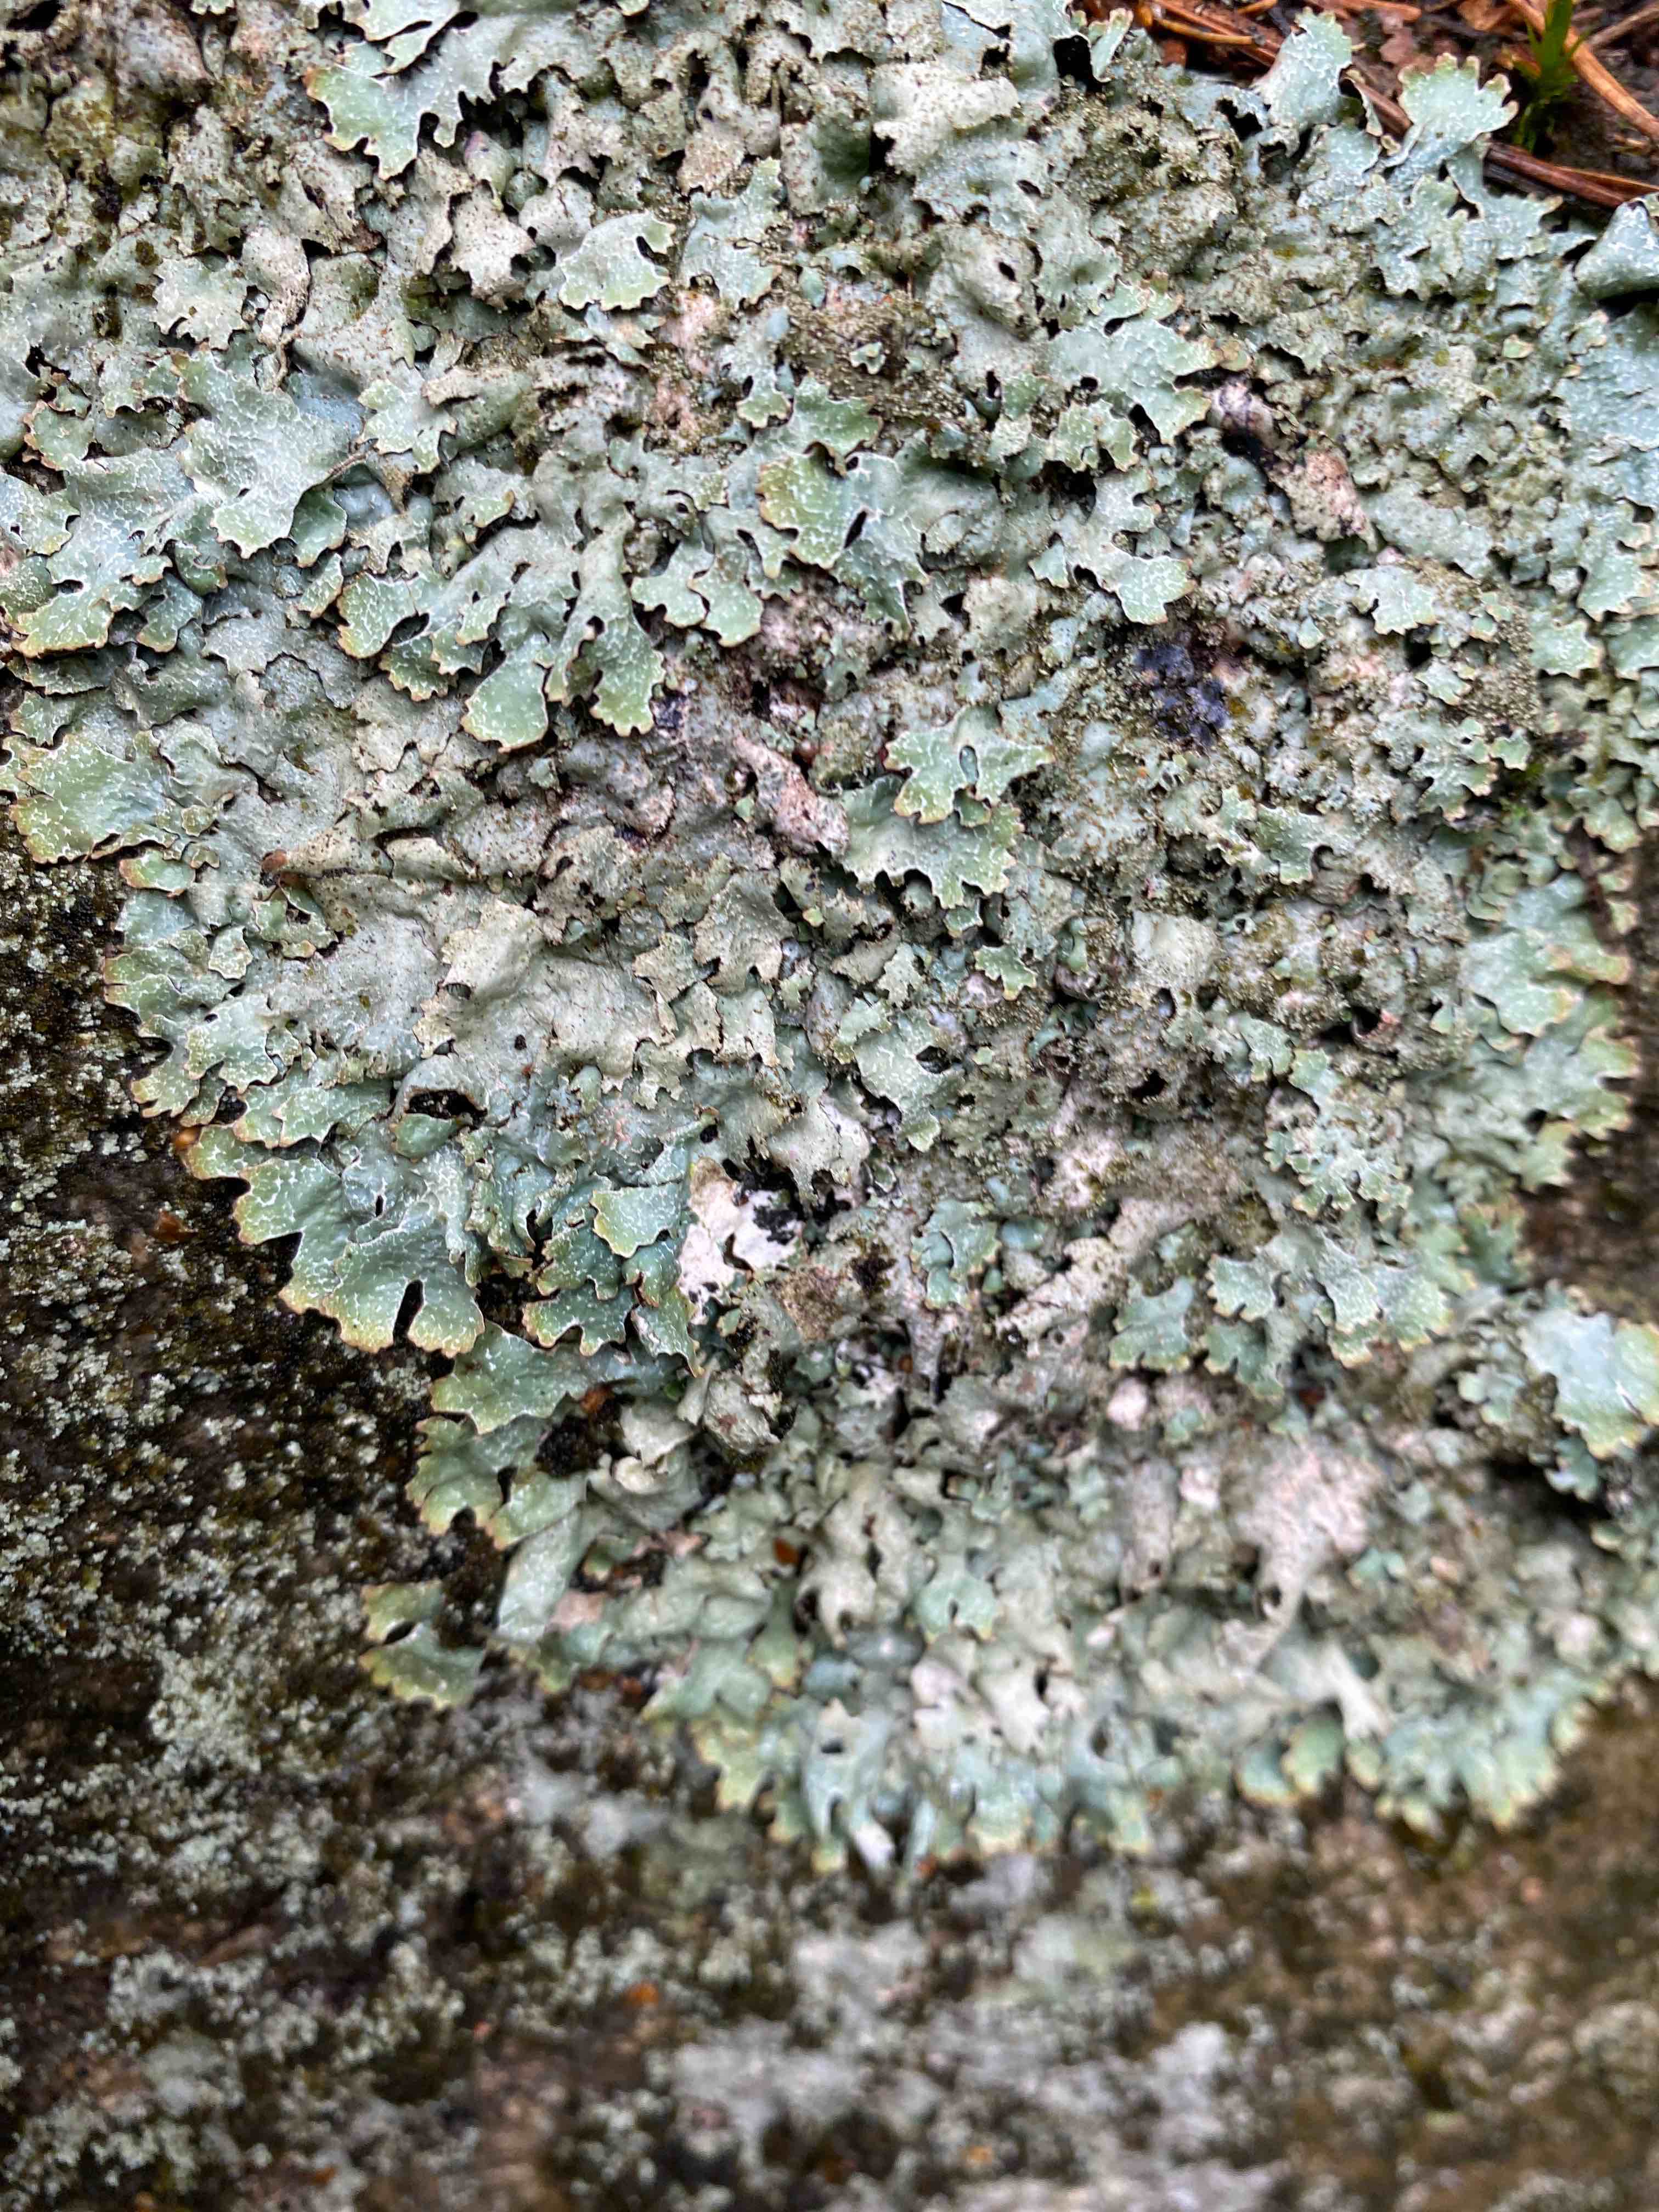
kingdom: Fungi
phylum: Ascomycota
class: Lecanoromycetes
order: Lecanorales
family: Parmeliaceae
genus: Parmelia
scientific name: Parmelia sulcata
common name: rynket skållav
